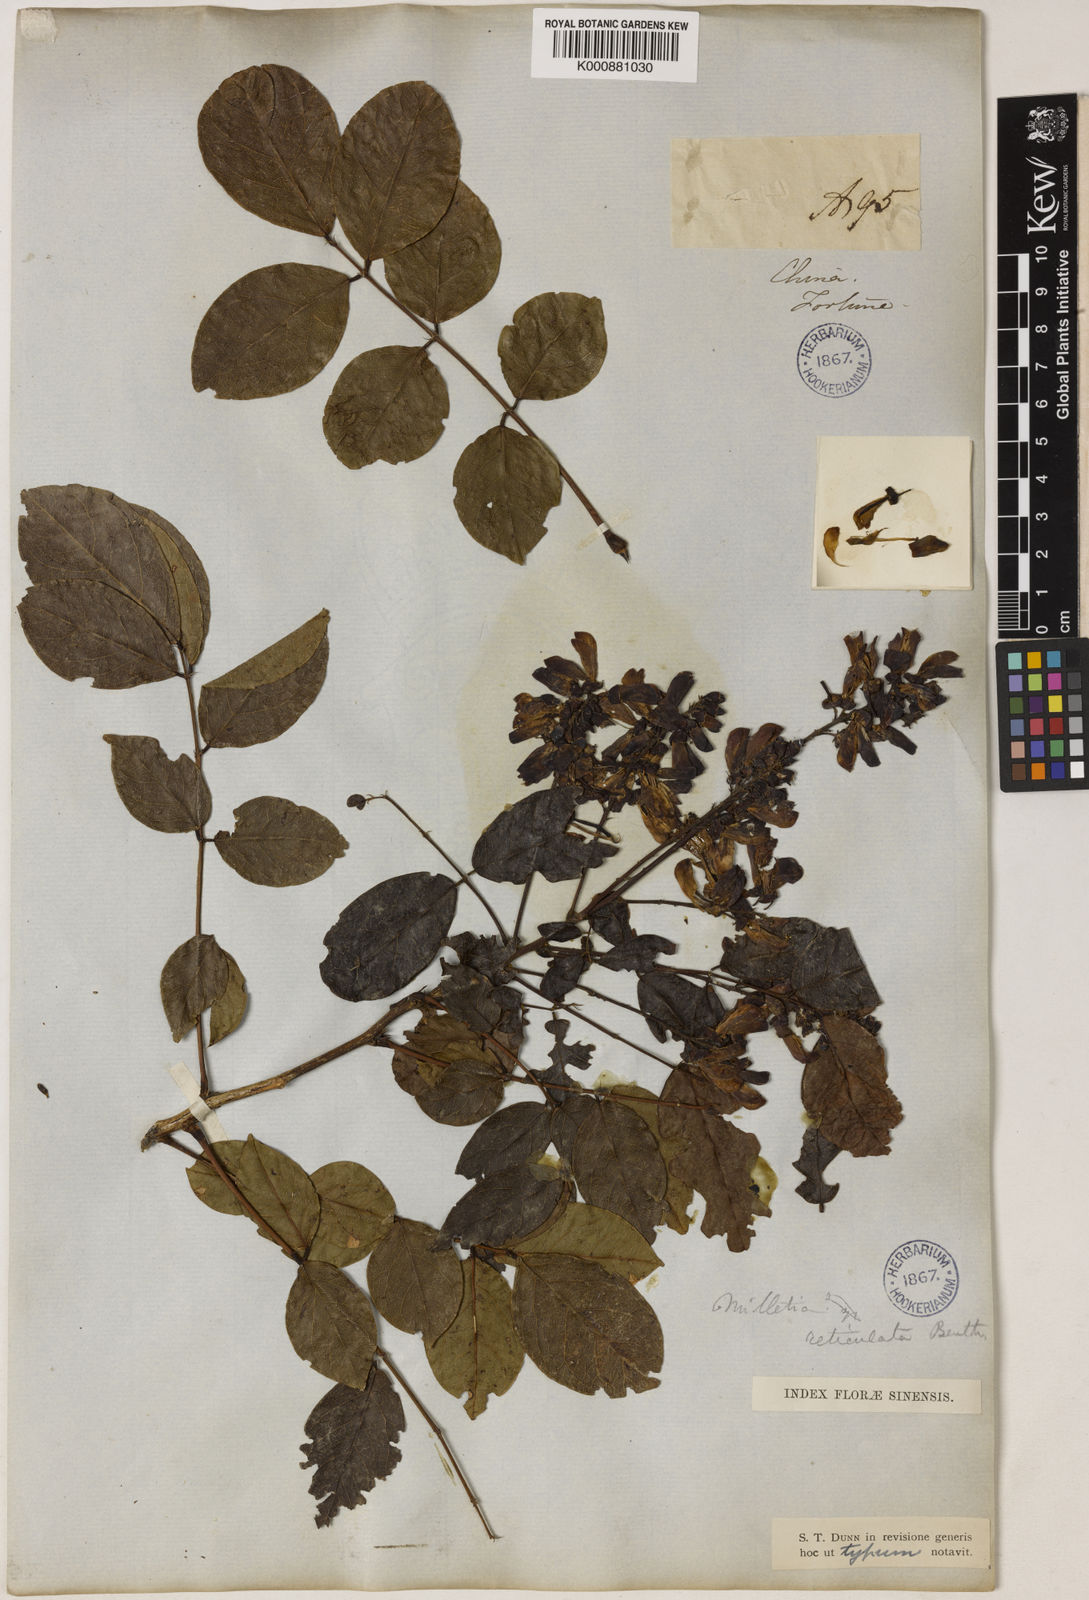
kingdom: Plantae
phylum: Tracheophyta
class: Magnoliopsida
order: Fabales
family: Fabaceae
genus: Wisteriopsis
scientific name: Wisteriopsis reticulata
